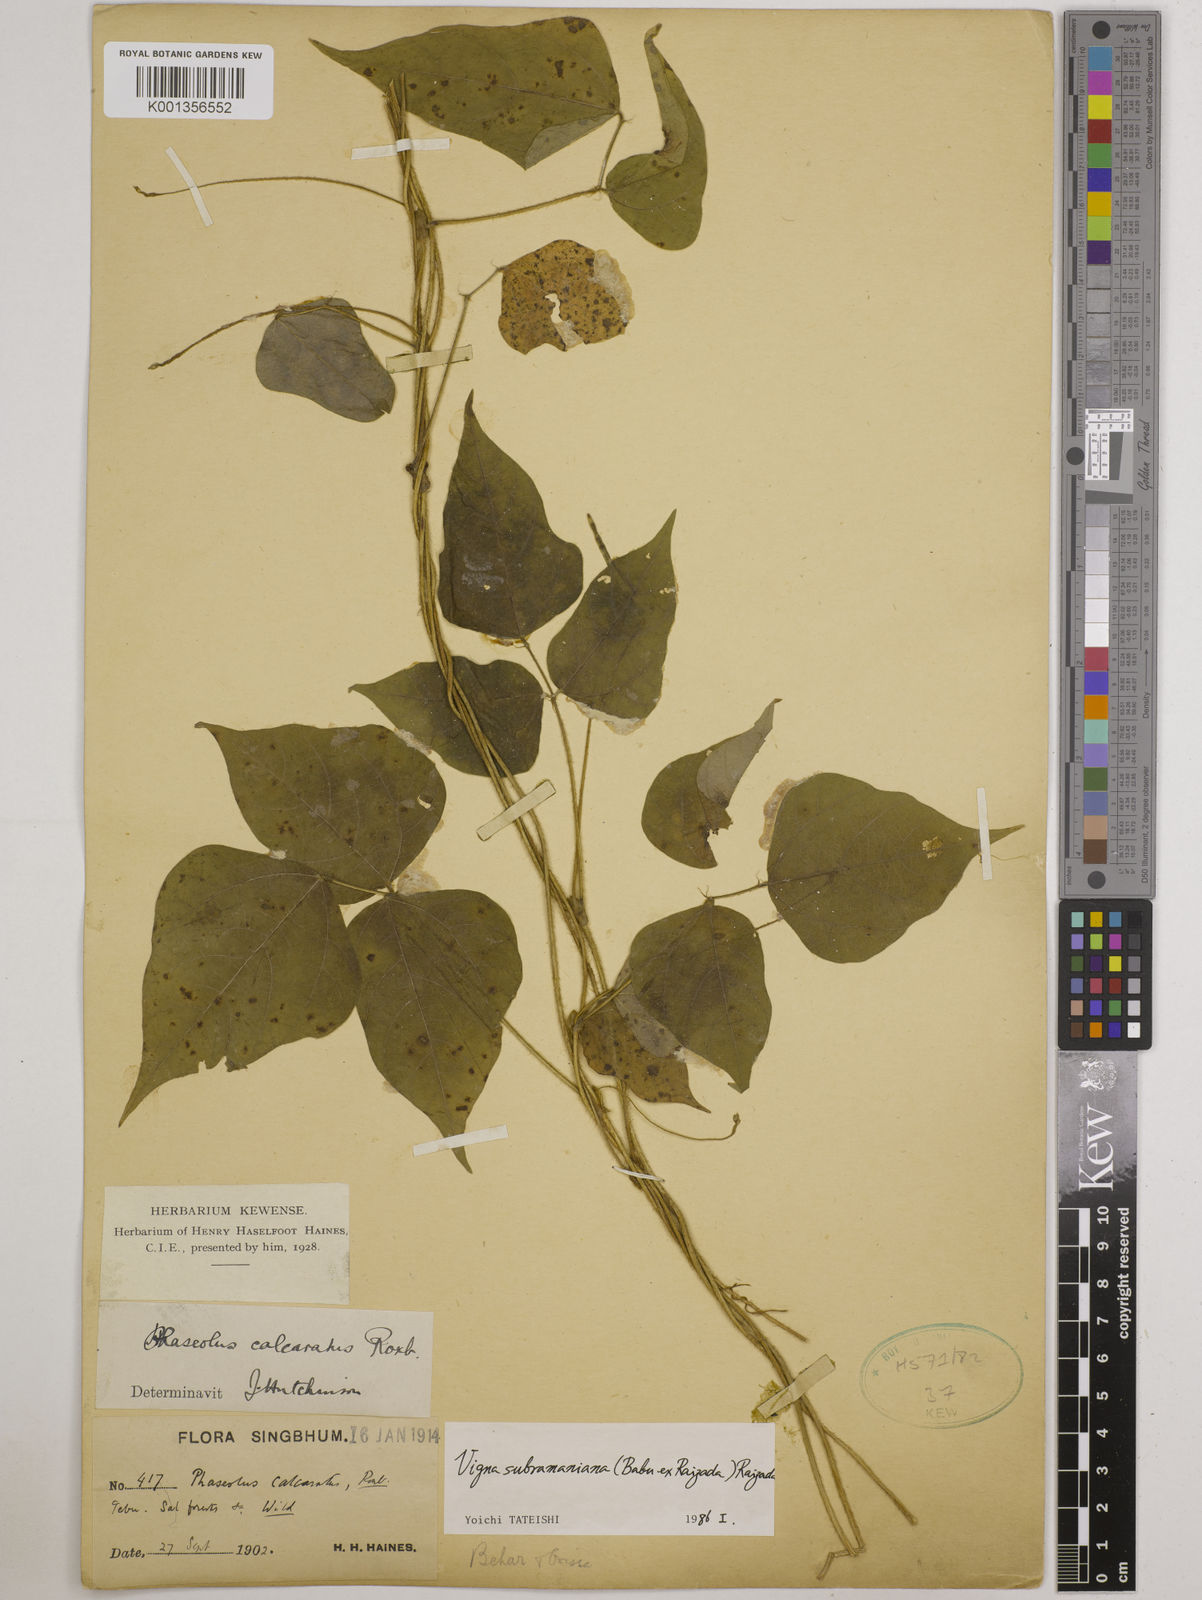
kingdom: Plantae
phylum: Tracheophyta
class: Magnoliopsida
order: Fabales
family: Fabaceae
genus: Vigna
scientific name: Vigna subramaniana
